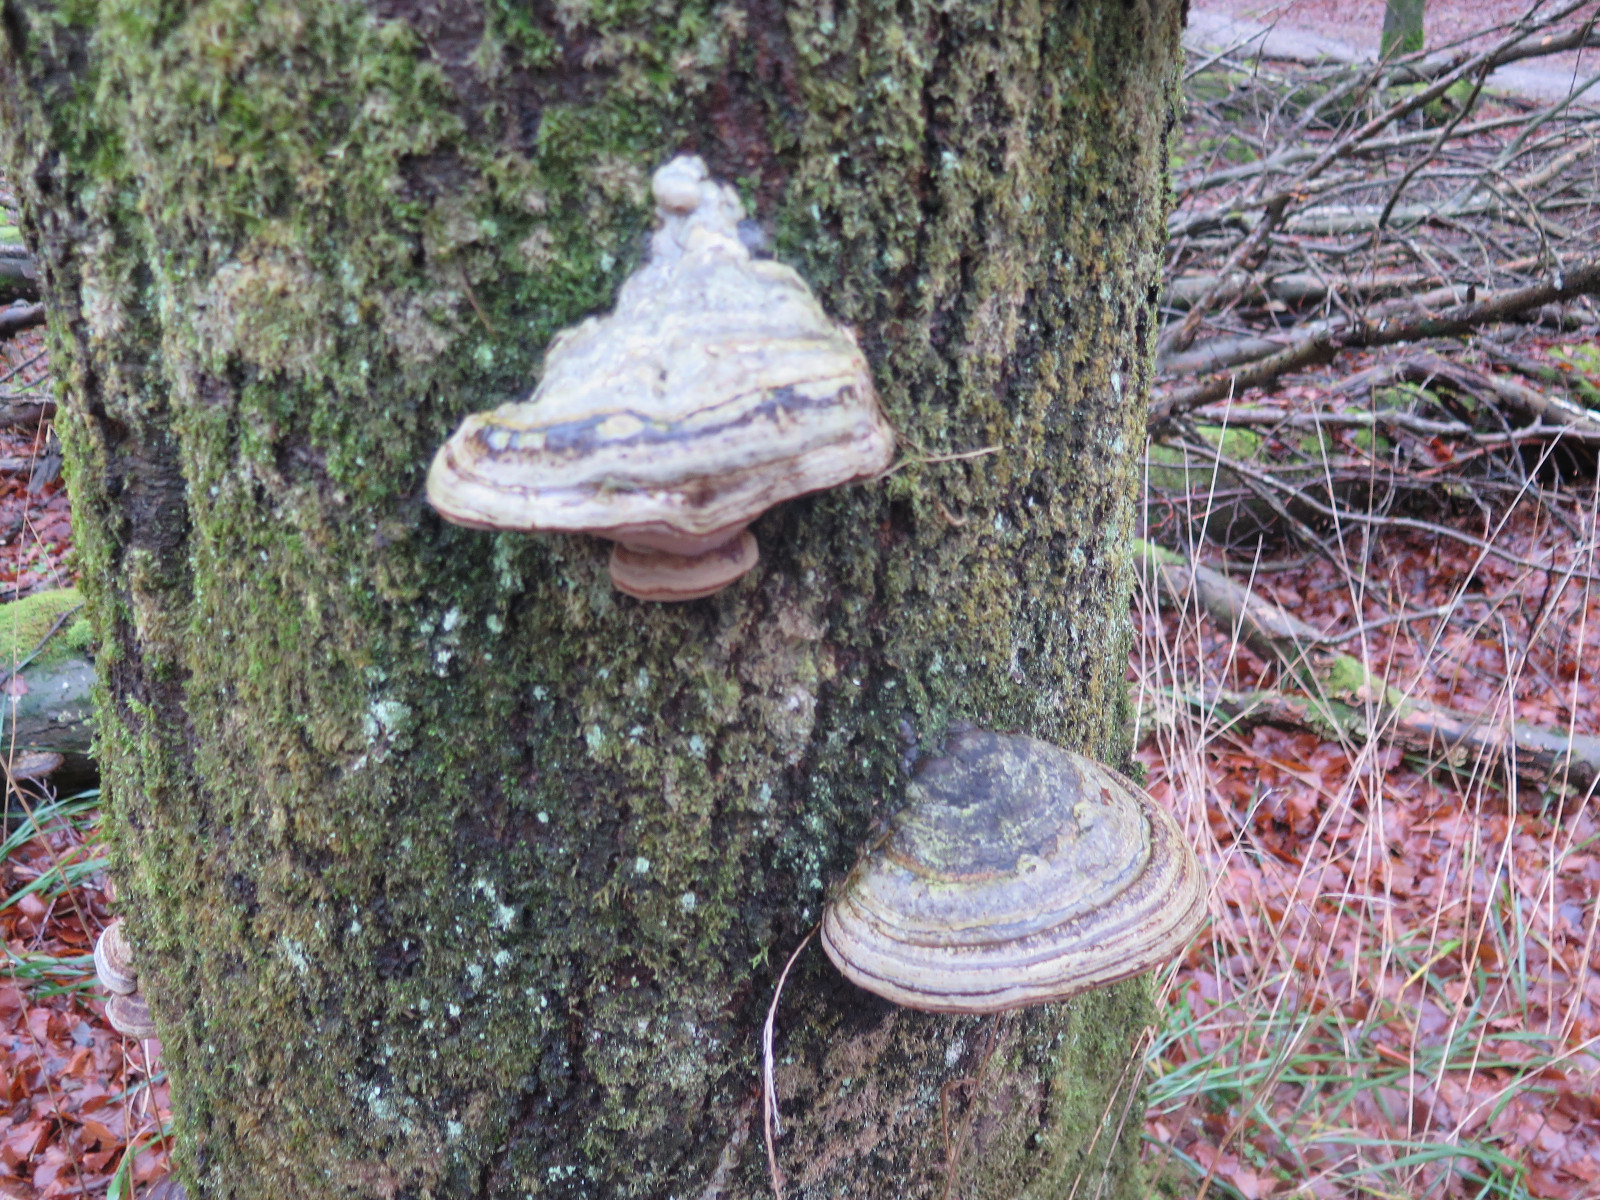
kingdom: Fungi
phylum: Basidiomycota
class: Agaricomycetes
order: Polyporales
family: Polyporaceae
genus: Fomes
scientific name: Fomes fomentarius
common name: tøndersvamp
